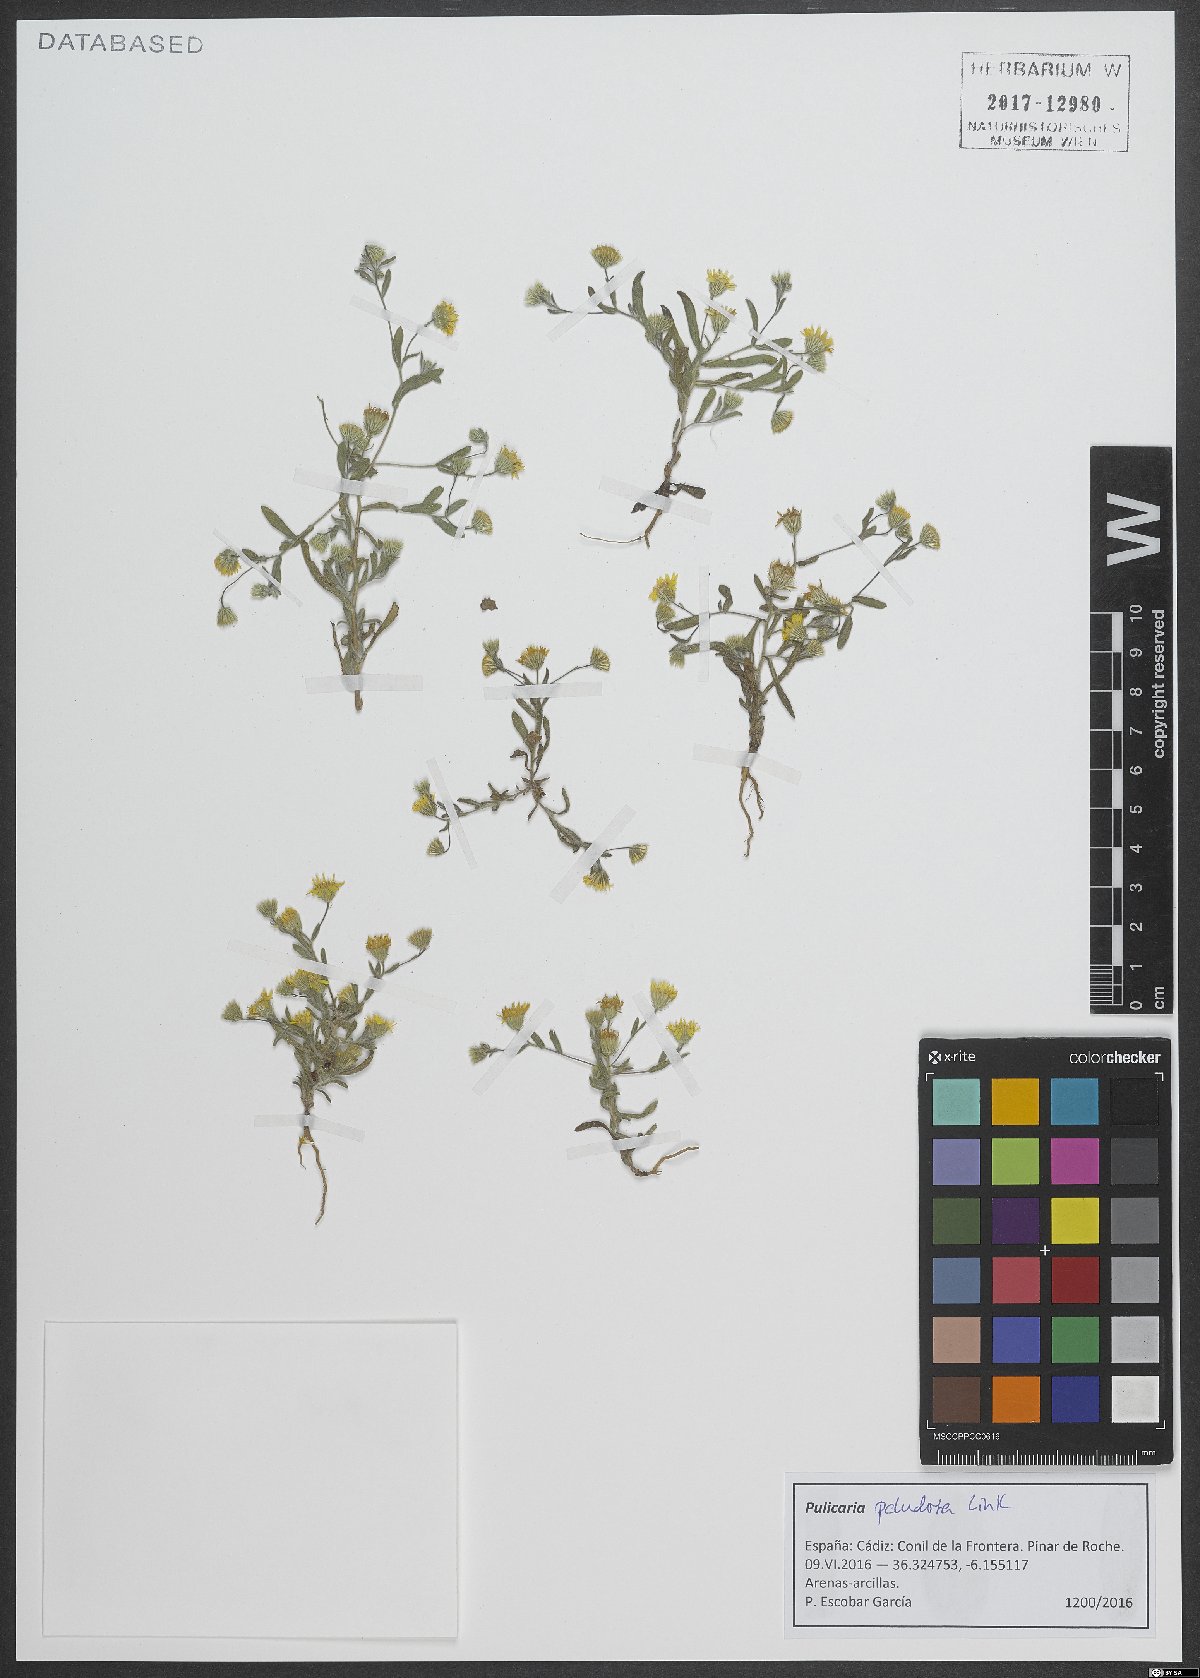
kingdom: Plantae
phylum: Tracheophyta
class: Magnoliopsida
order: Asterales
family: Asteraceae
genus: Pulicaria
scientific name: Pulicaria arabica
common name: Ladies' false fleabane
